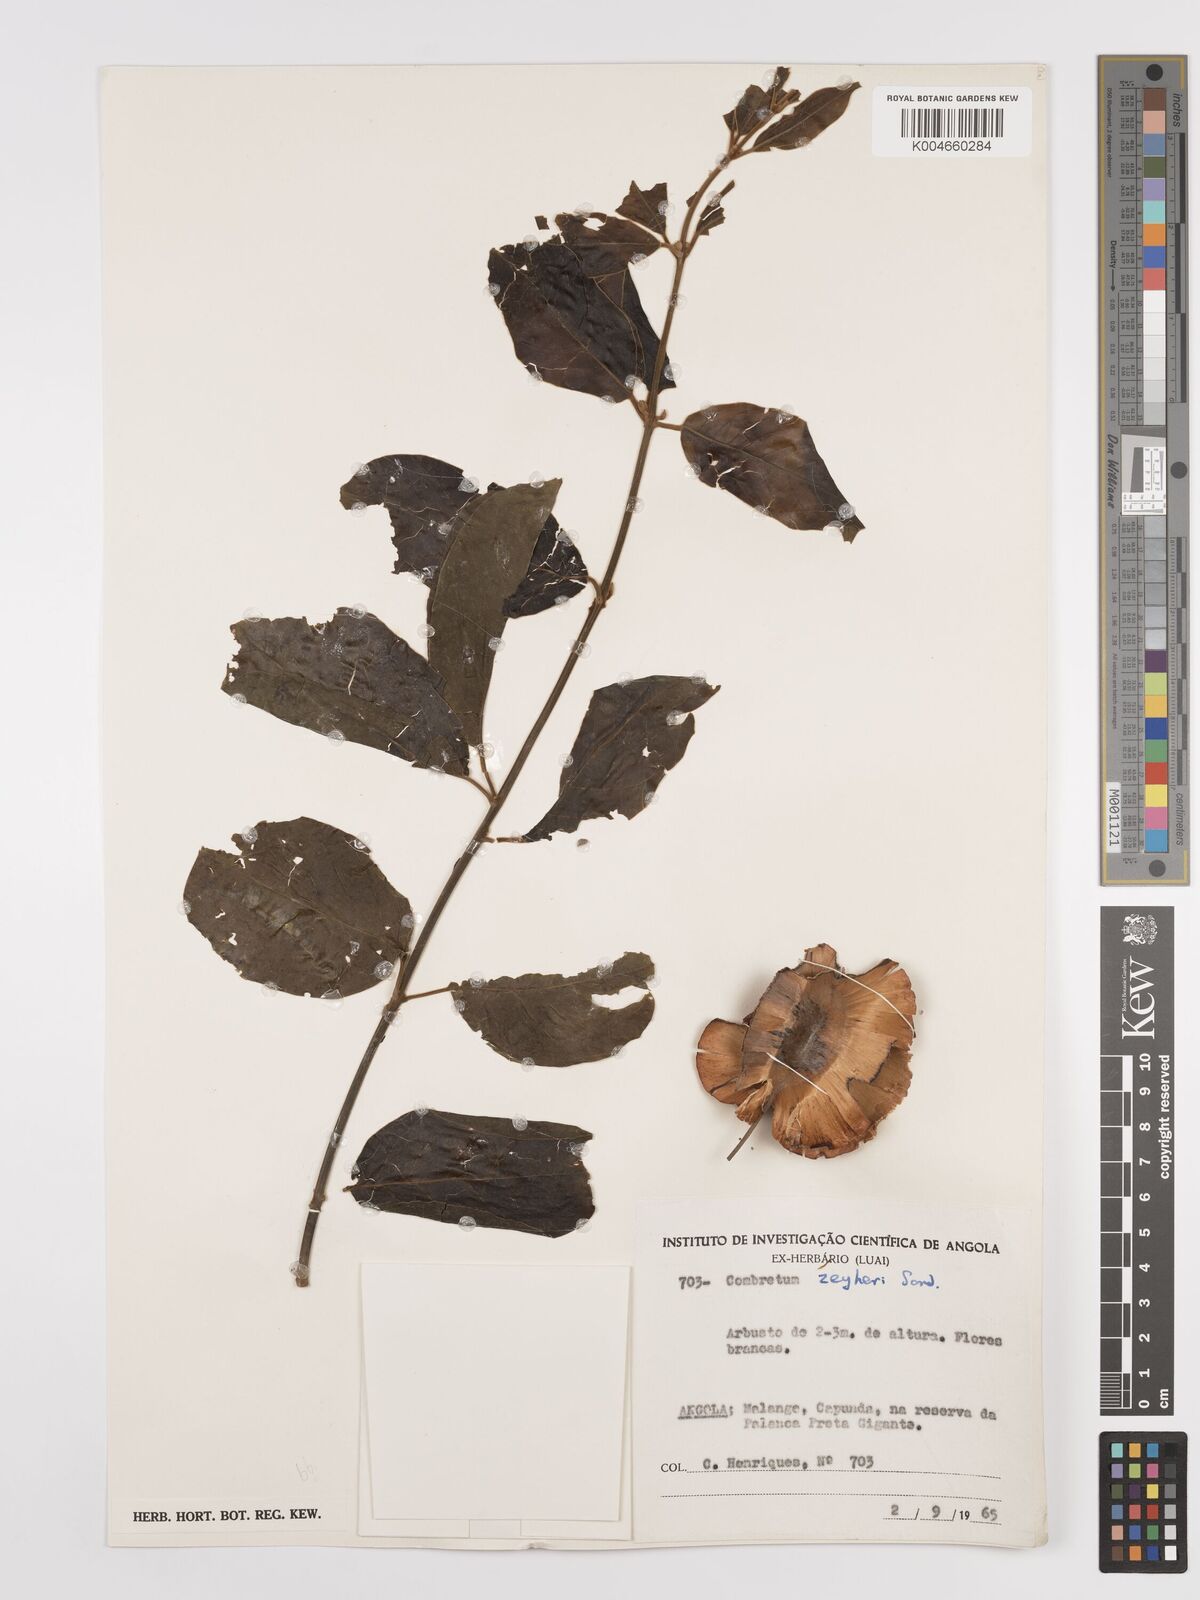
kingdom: Plantae
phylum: Tracheophyta
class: Magnoliopsida
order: Myrtales
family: Combretaceae
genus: Combretum
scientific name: Combretum zeyheri
